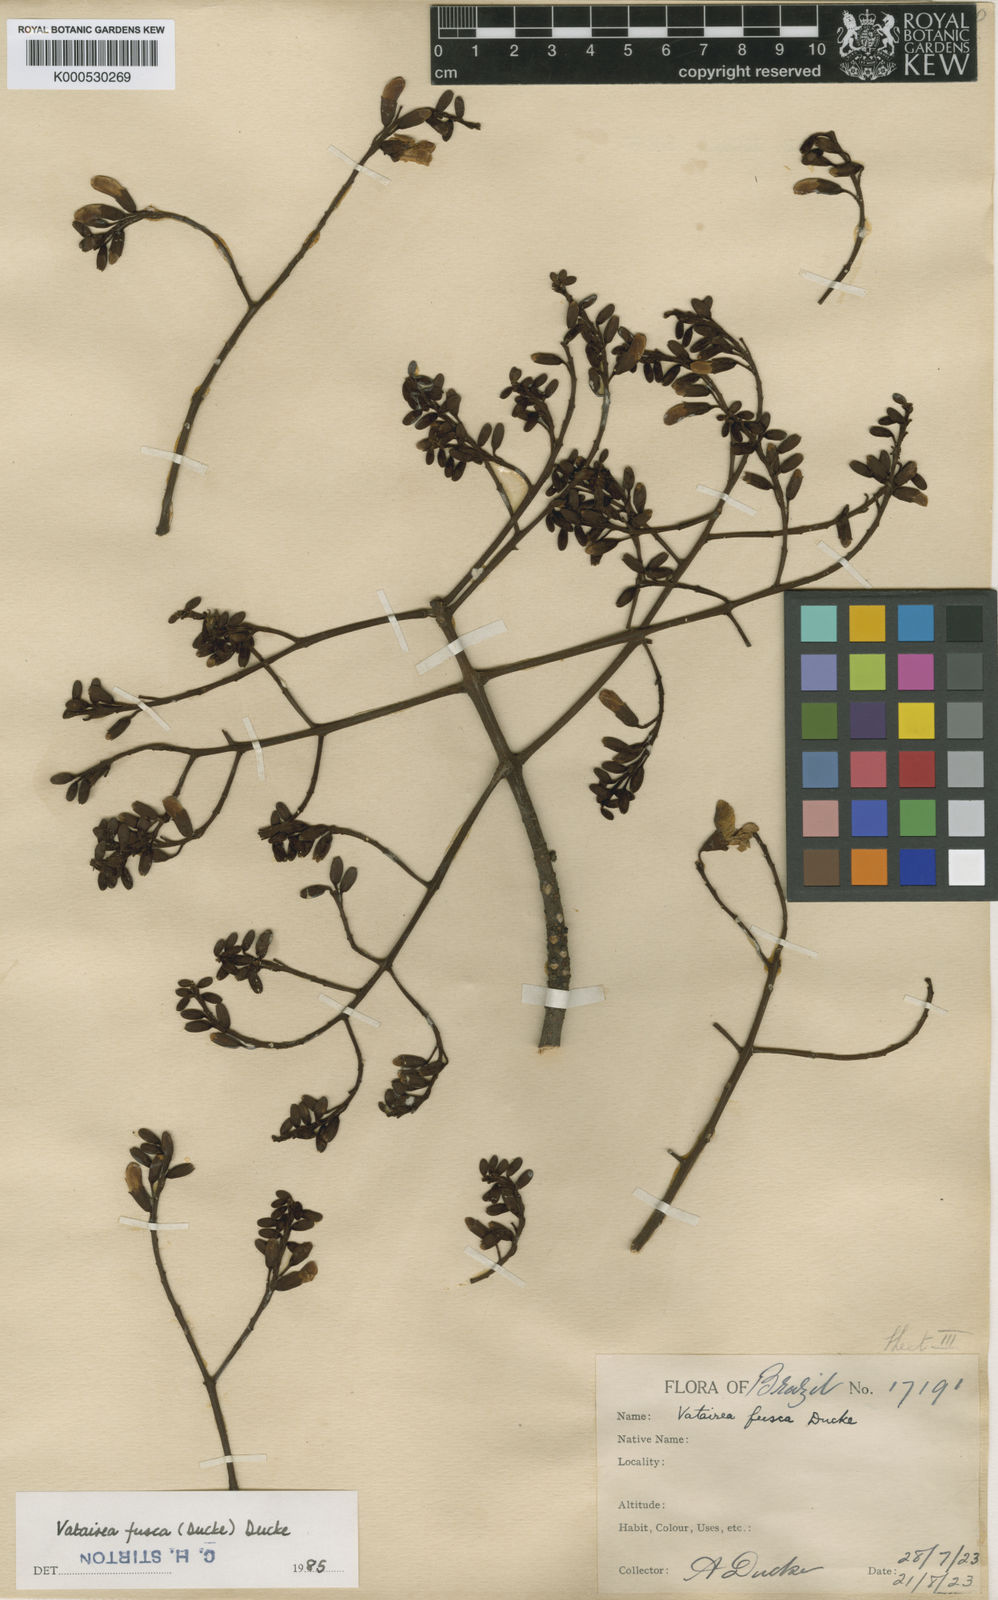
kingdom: Plantae
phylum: Tracheophyta
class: Magnoliopsida
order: Fabales
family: Fabaceae
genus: Vatairea
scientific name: Vatairea fusca
